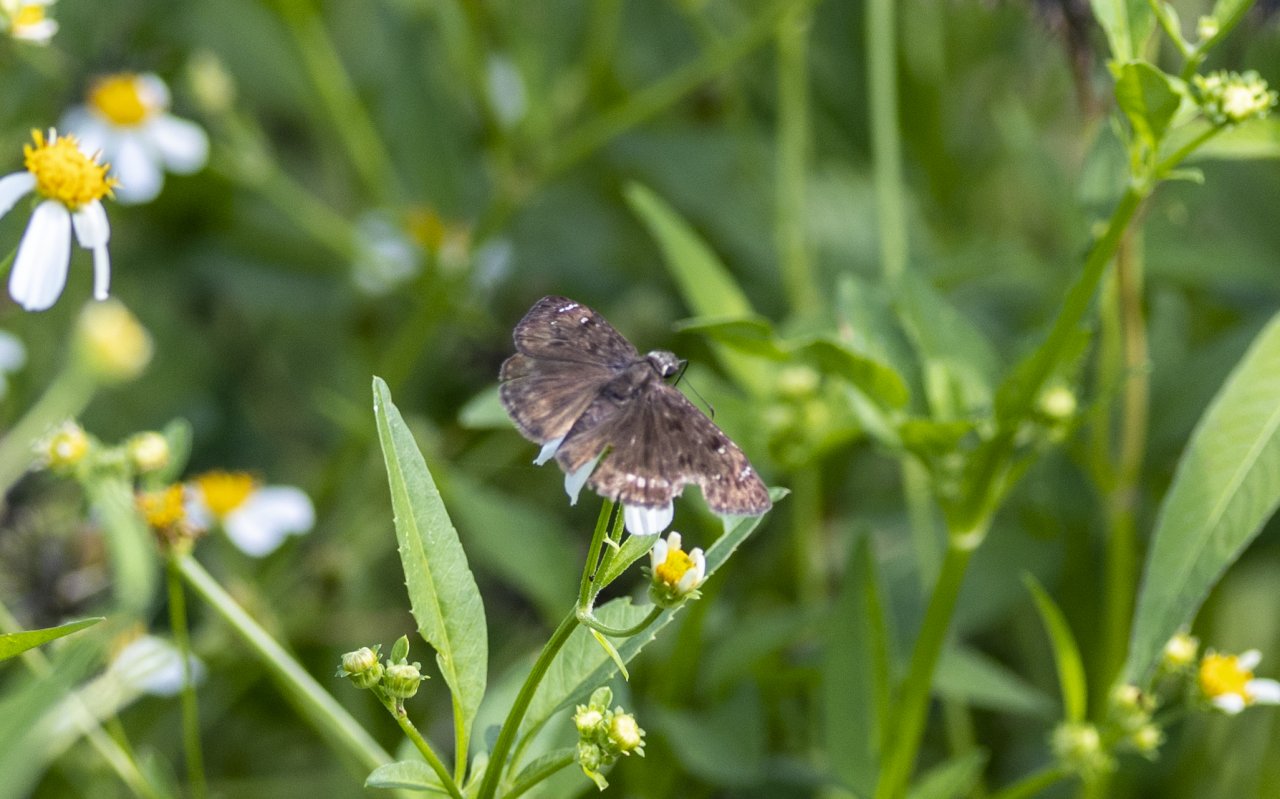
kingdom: Animalia
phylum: Arthropoda
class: Insecta
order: Lepidoptera
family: Hesperiidae
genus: Erynnis
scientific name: Erynnis
